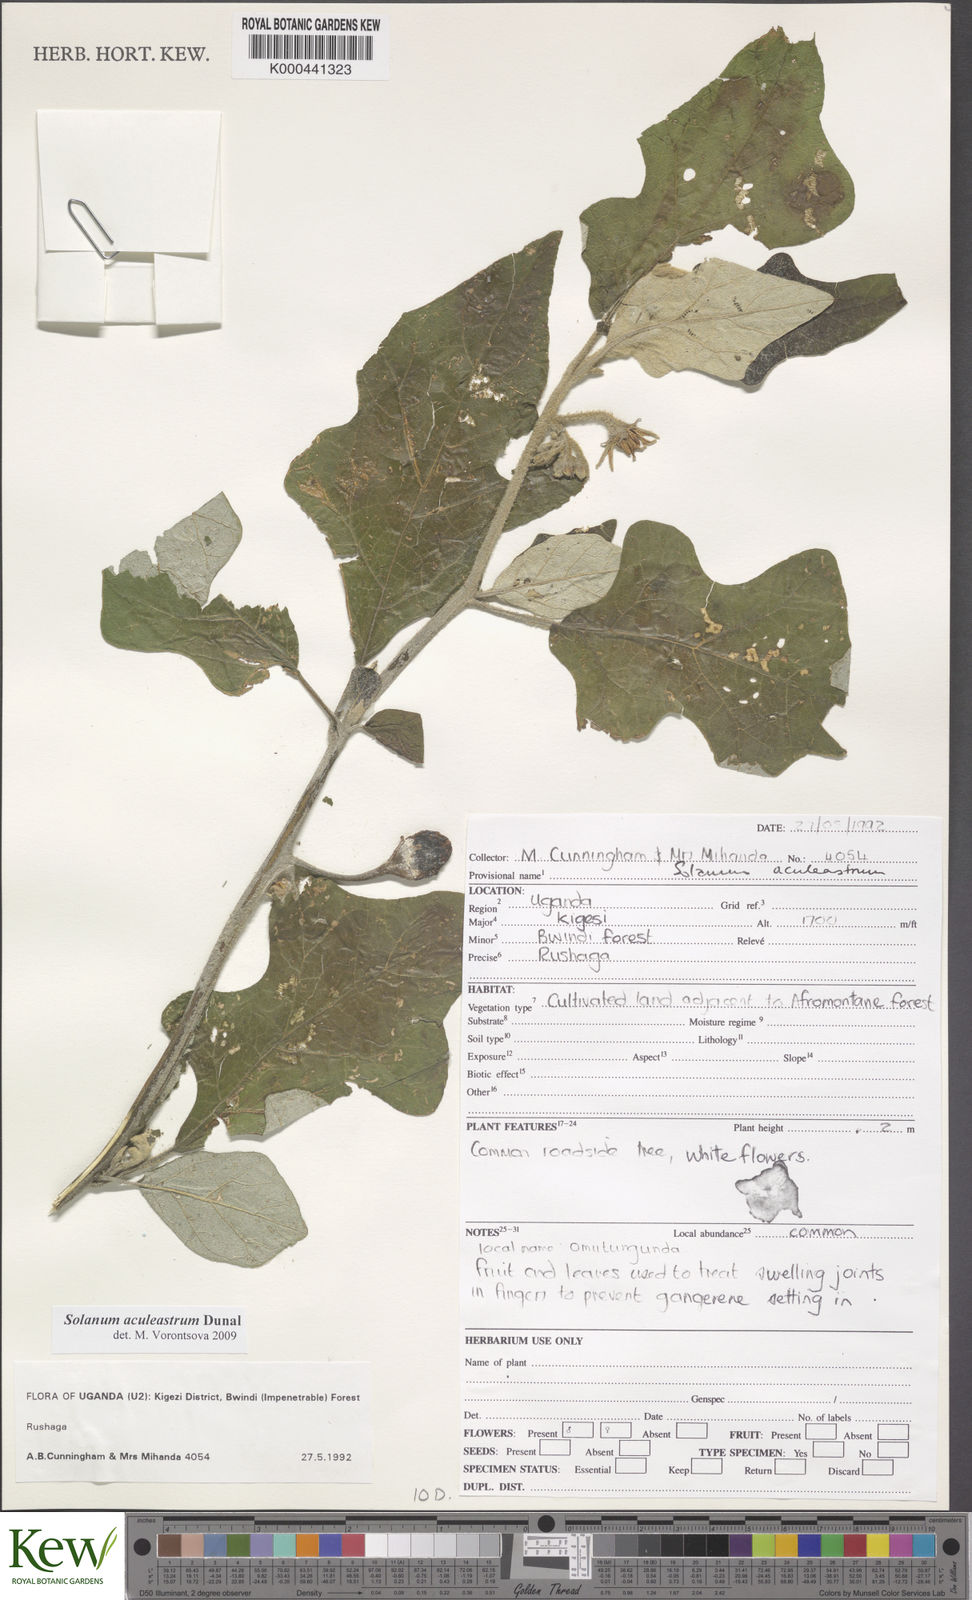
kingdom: Plantae
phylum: Tracheophyta
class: Magnoliopsida
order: Solanales
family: Solanaceae
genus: Solanum
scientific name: Solanum aculeastrum
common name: Goat bitter-apple
